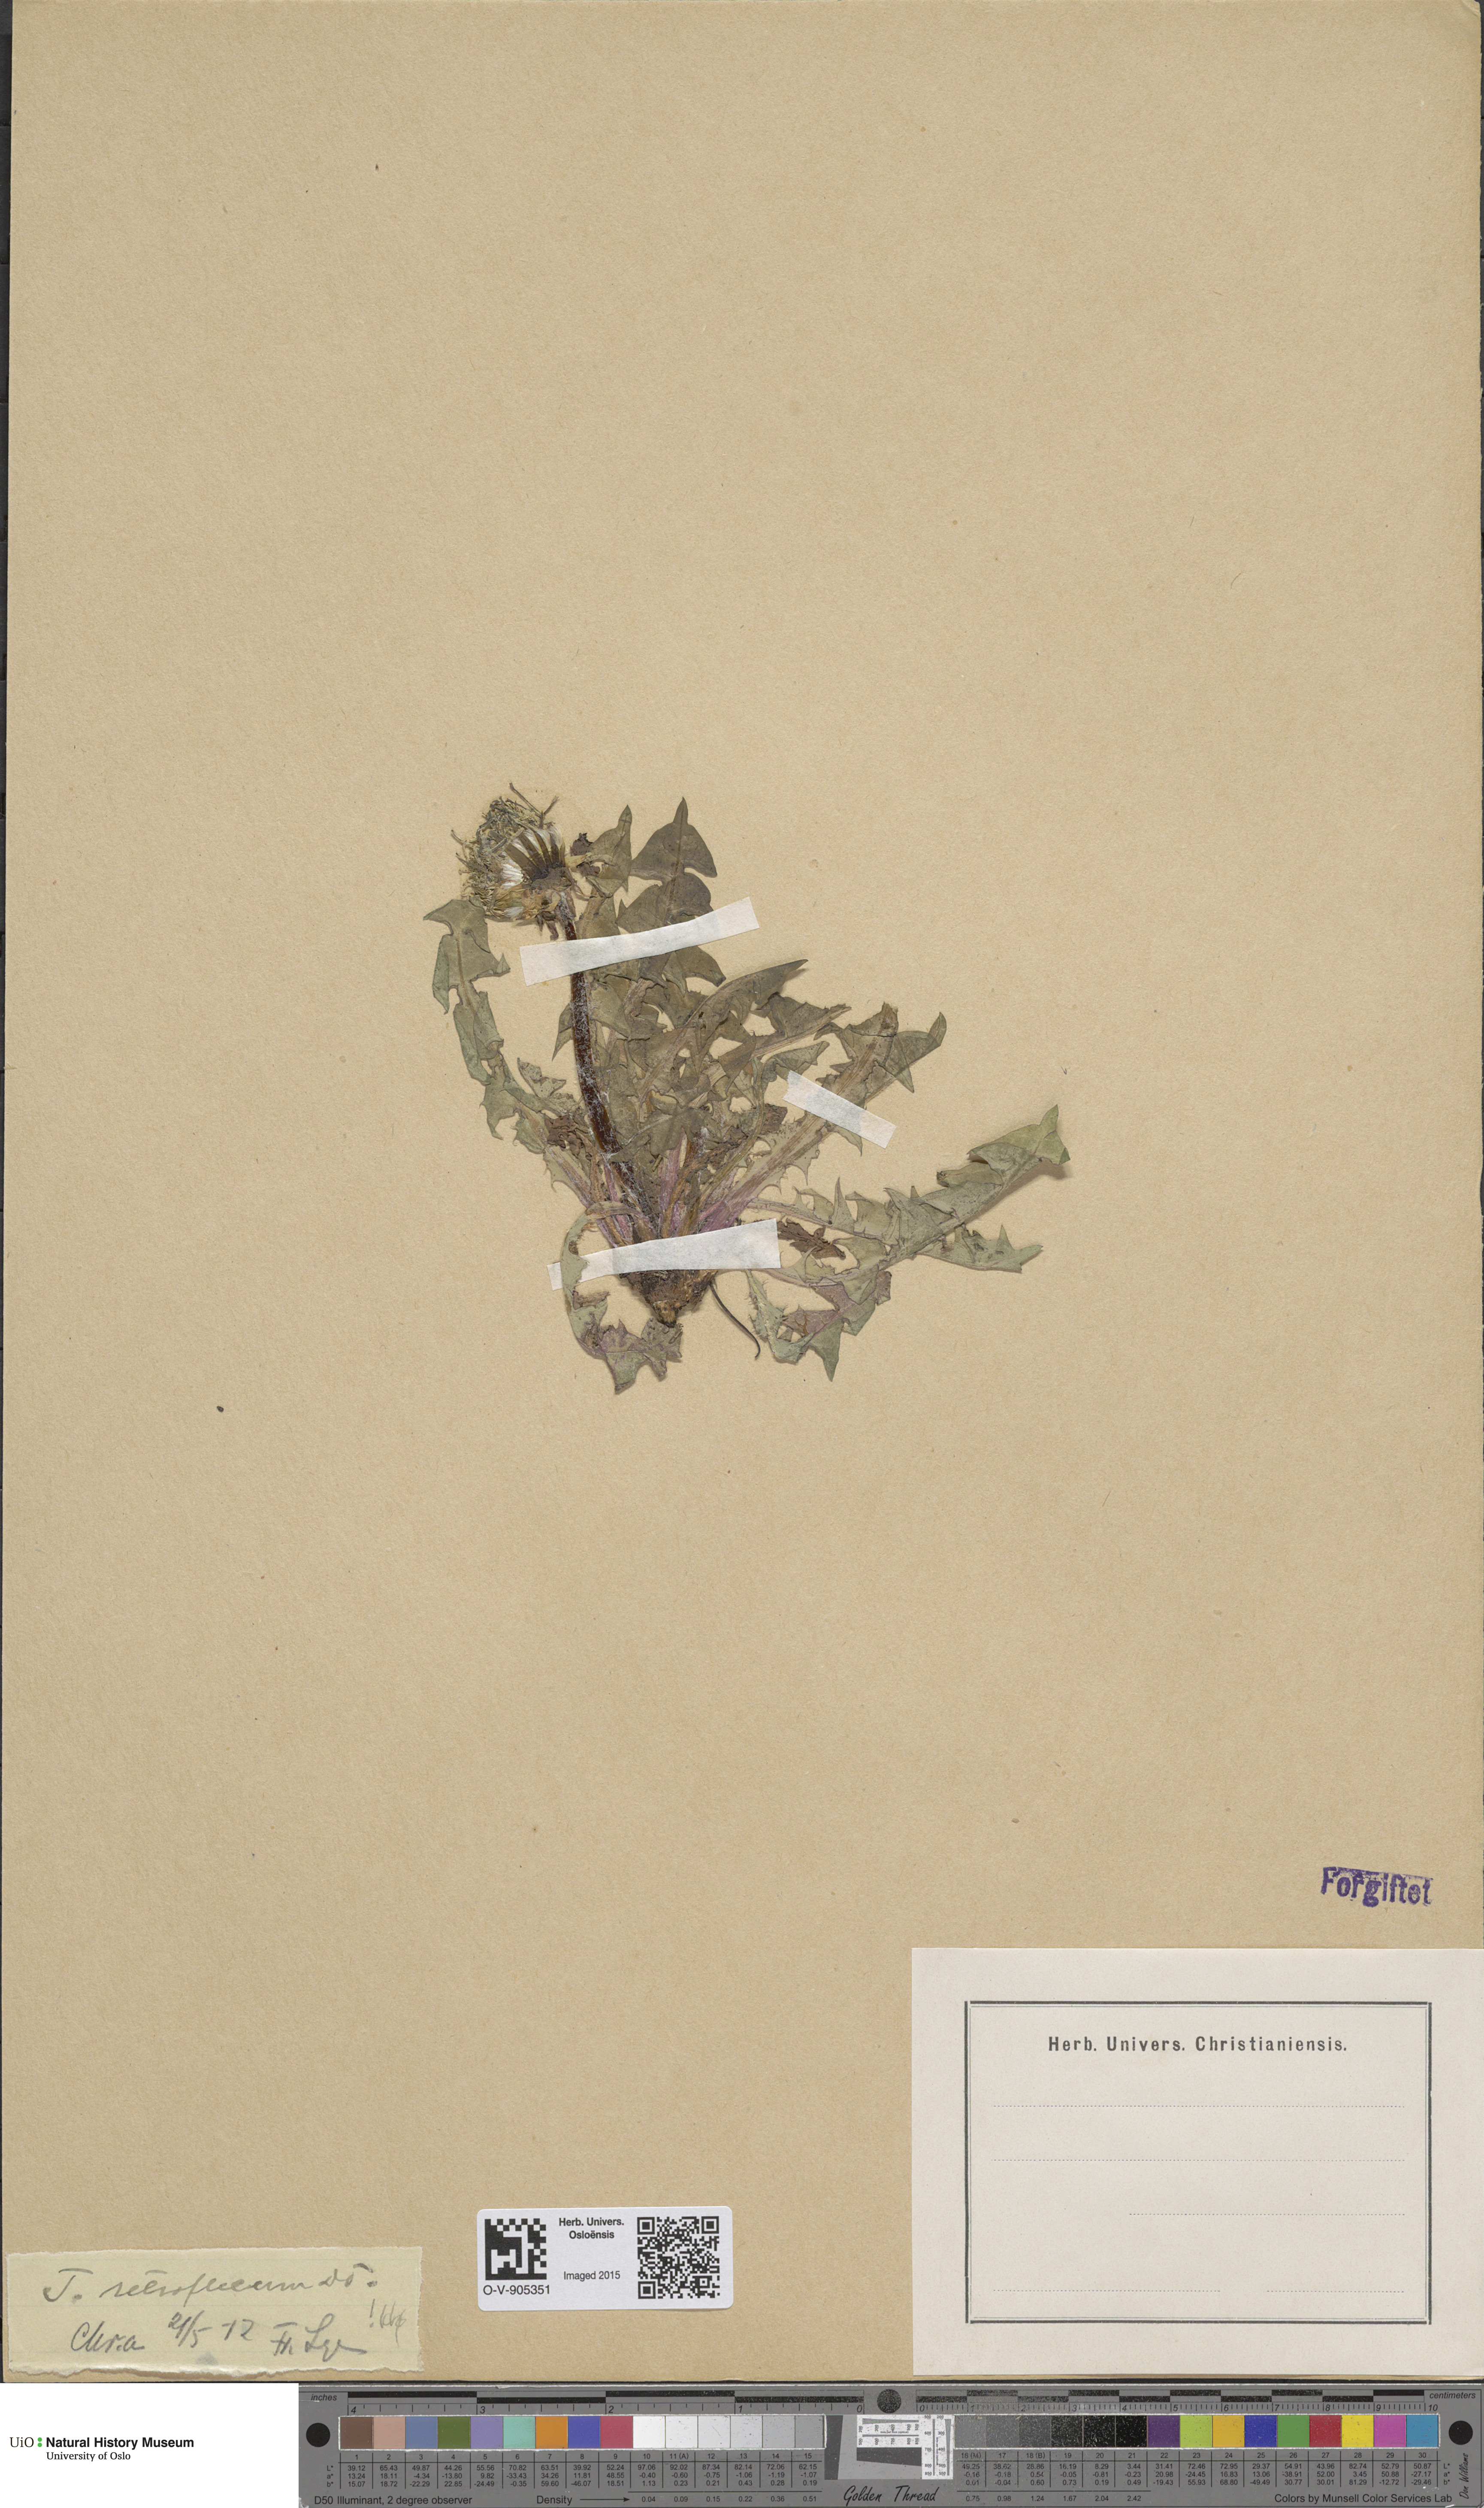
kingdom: Plantae
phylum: Tracheophyta
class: Magnoliopsida
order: Asterales
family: Asteraceae
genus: Taraxacum
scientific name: Taraxacum retroflexum
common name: Reflexed-lobed dandelion
